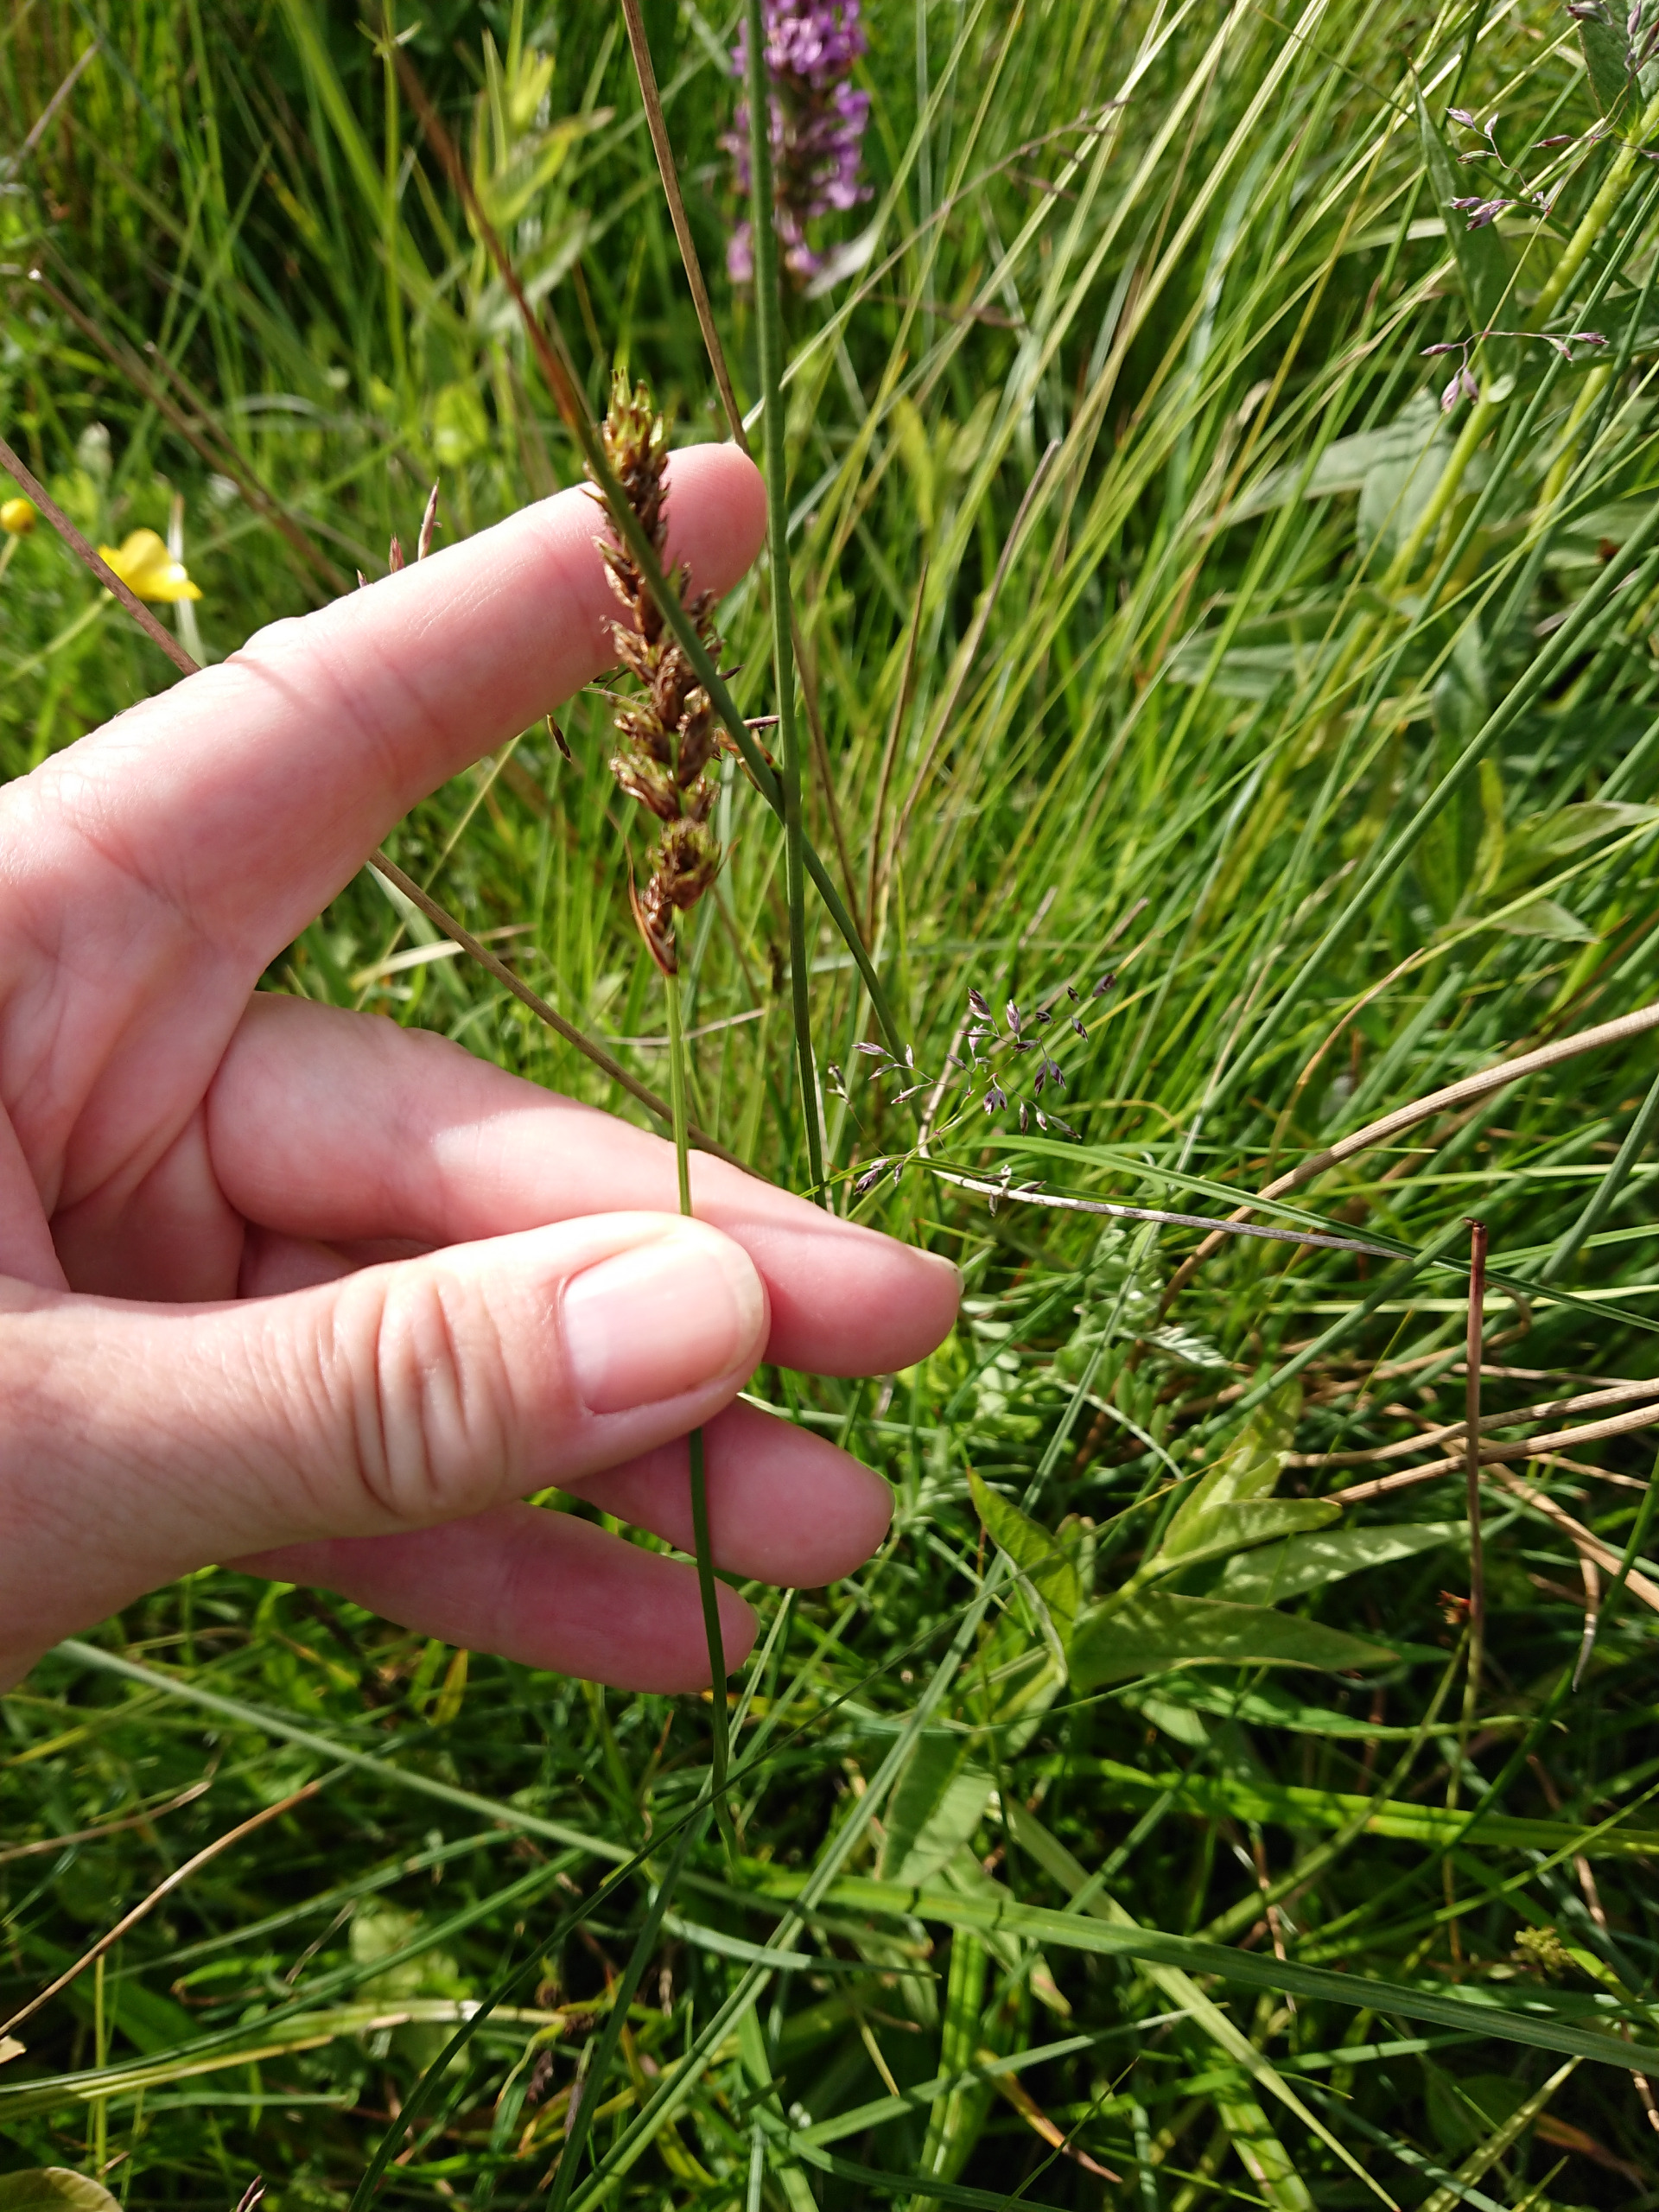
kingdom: Plantae
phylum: Tracheophyta
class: Liliopsida
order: Poales
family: Cyperaceae
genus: Carex
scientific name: Carex disticha
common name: Toradet star
